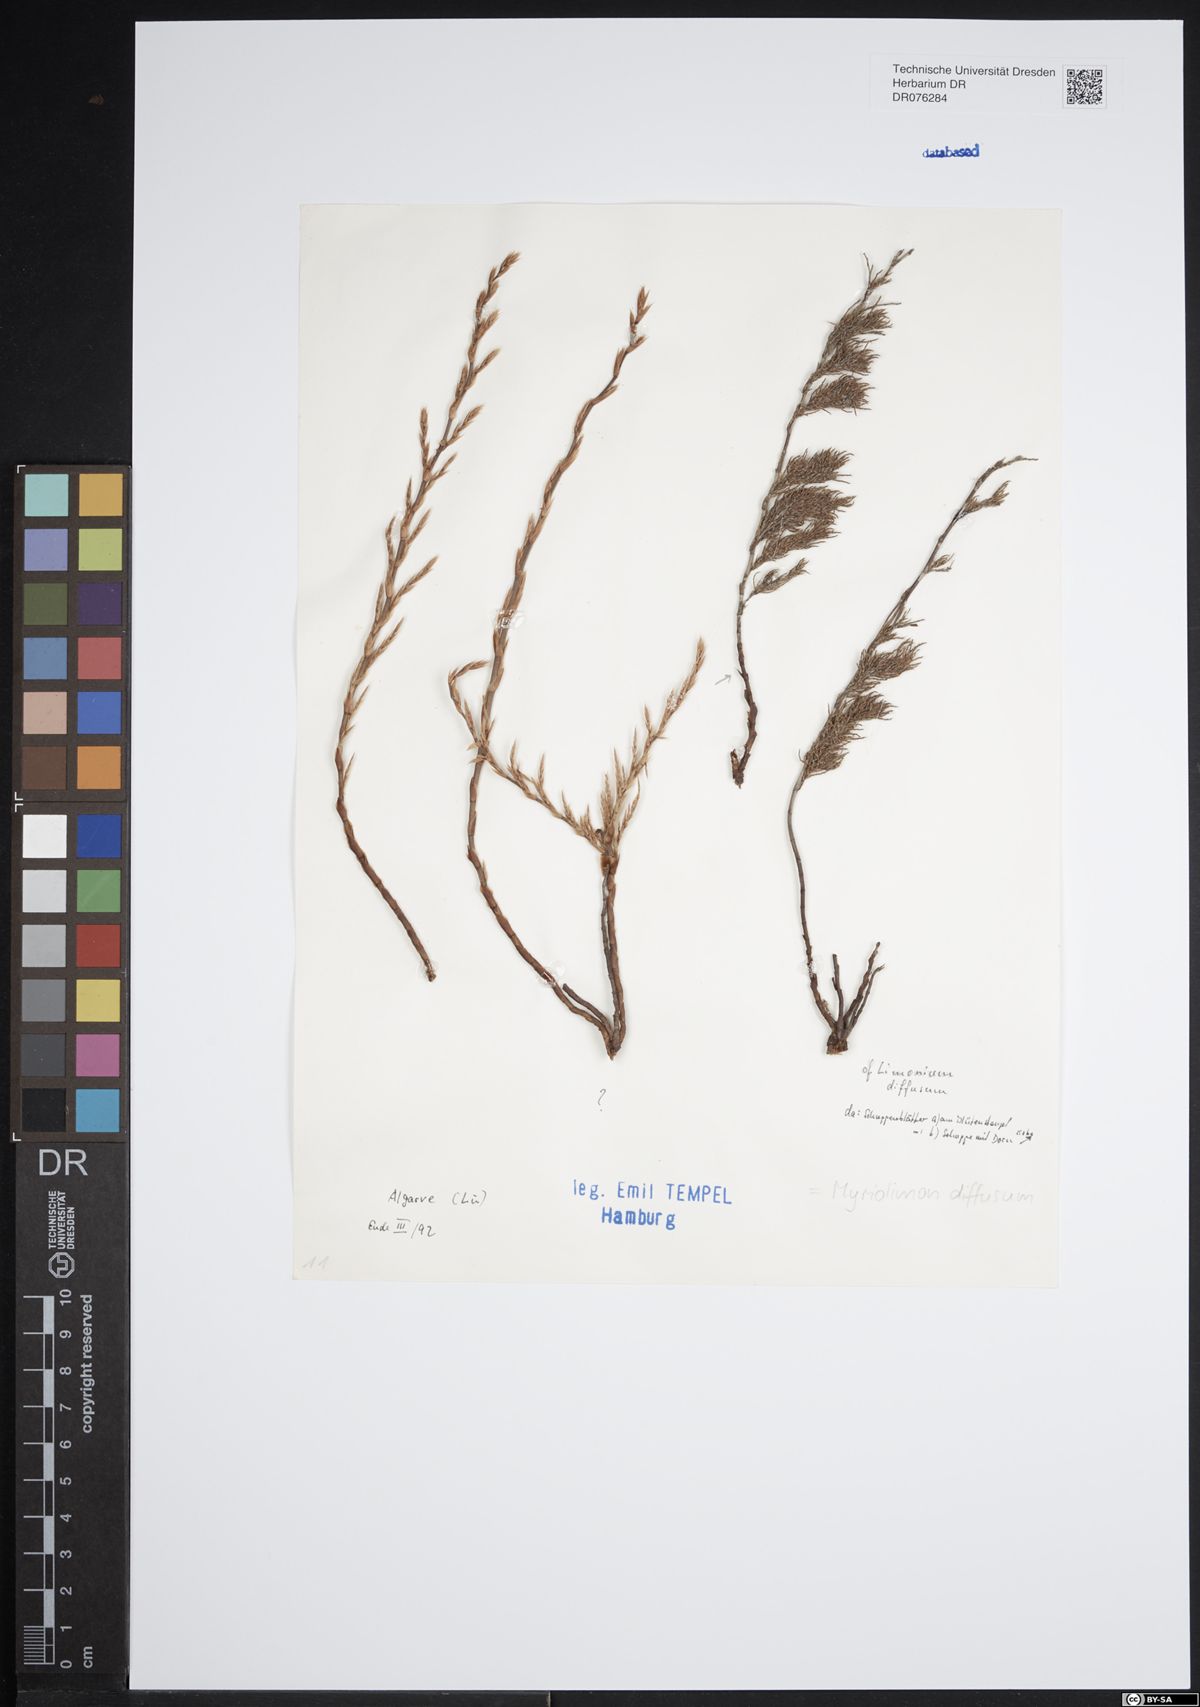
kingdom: Plantae
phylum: Tracheophyta
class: Magnoliopsida
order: Caryophyllales
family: Plumbaginaceae
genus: Myriolimon
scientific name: Myriolimon diffusum
